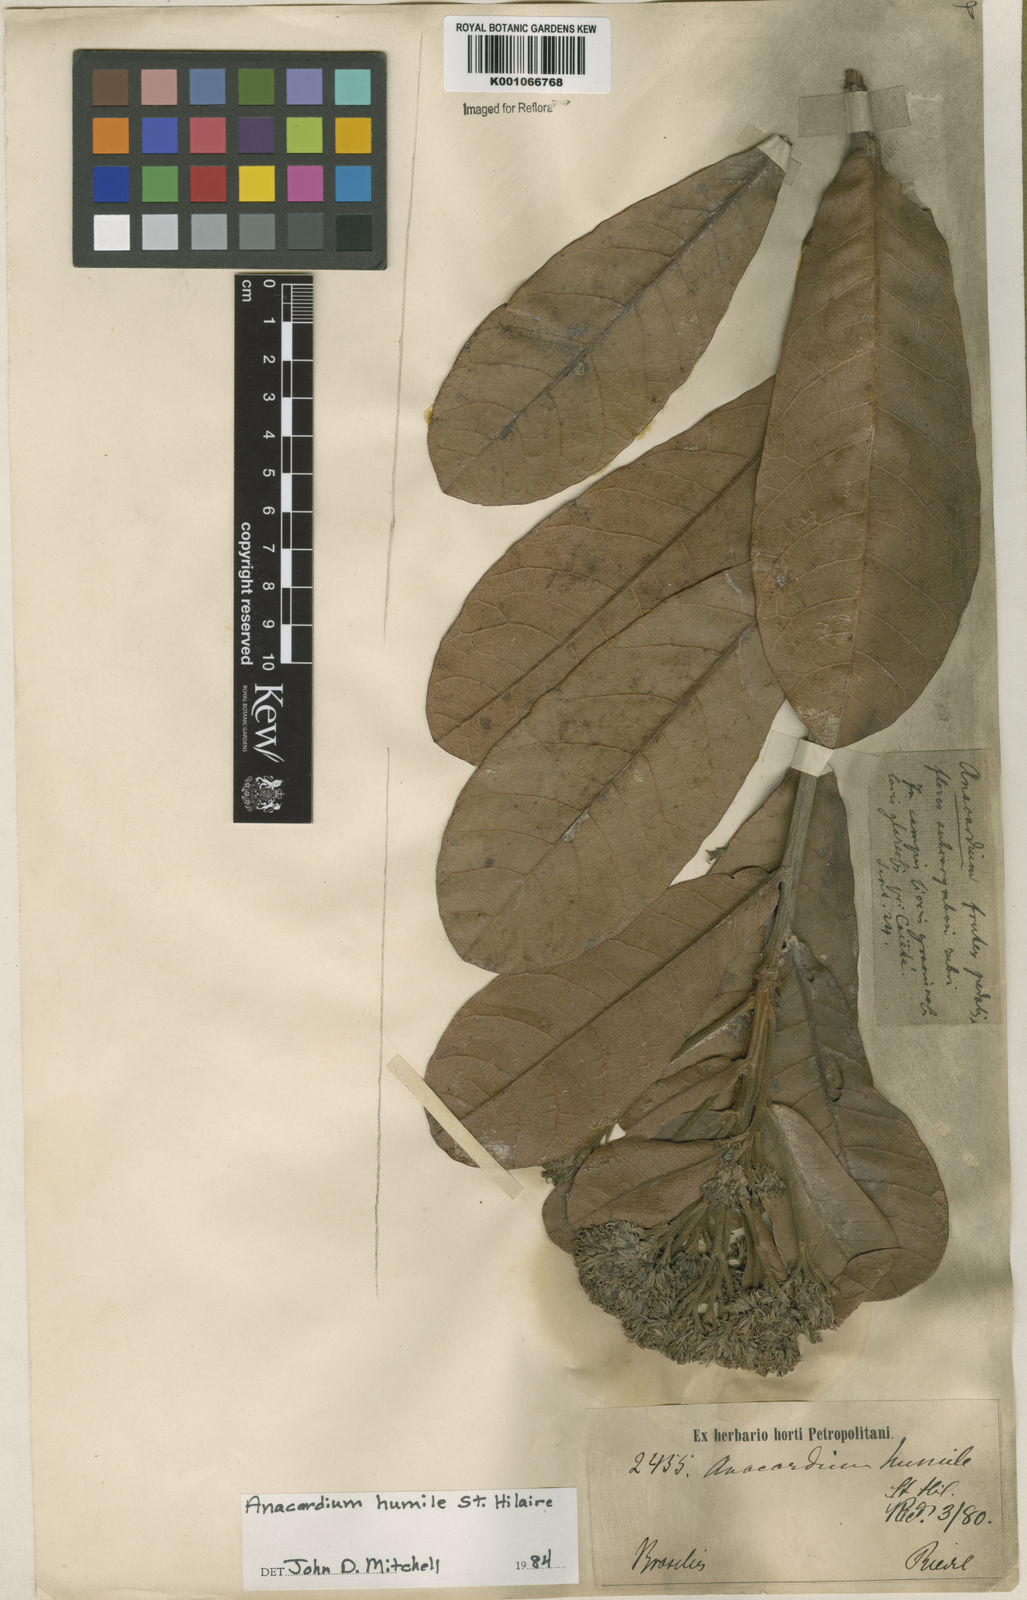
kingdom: Plantae
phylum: Tracheophyta
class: Magnoliopsida
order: Sapindales
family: Anacardiaceae
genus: Anacardium
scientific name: Anacardium humile
